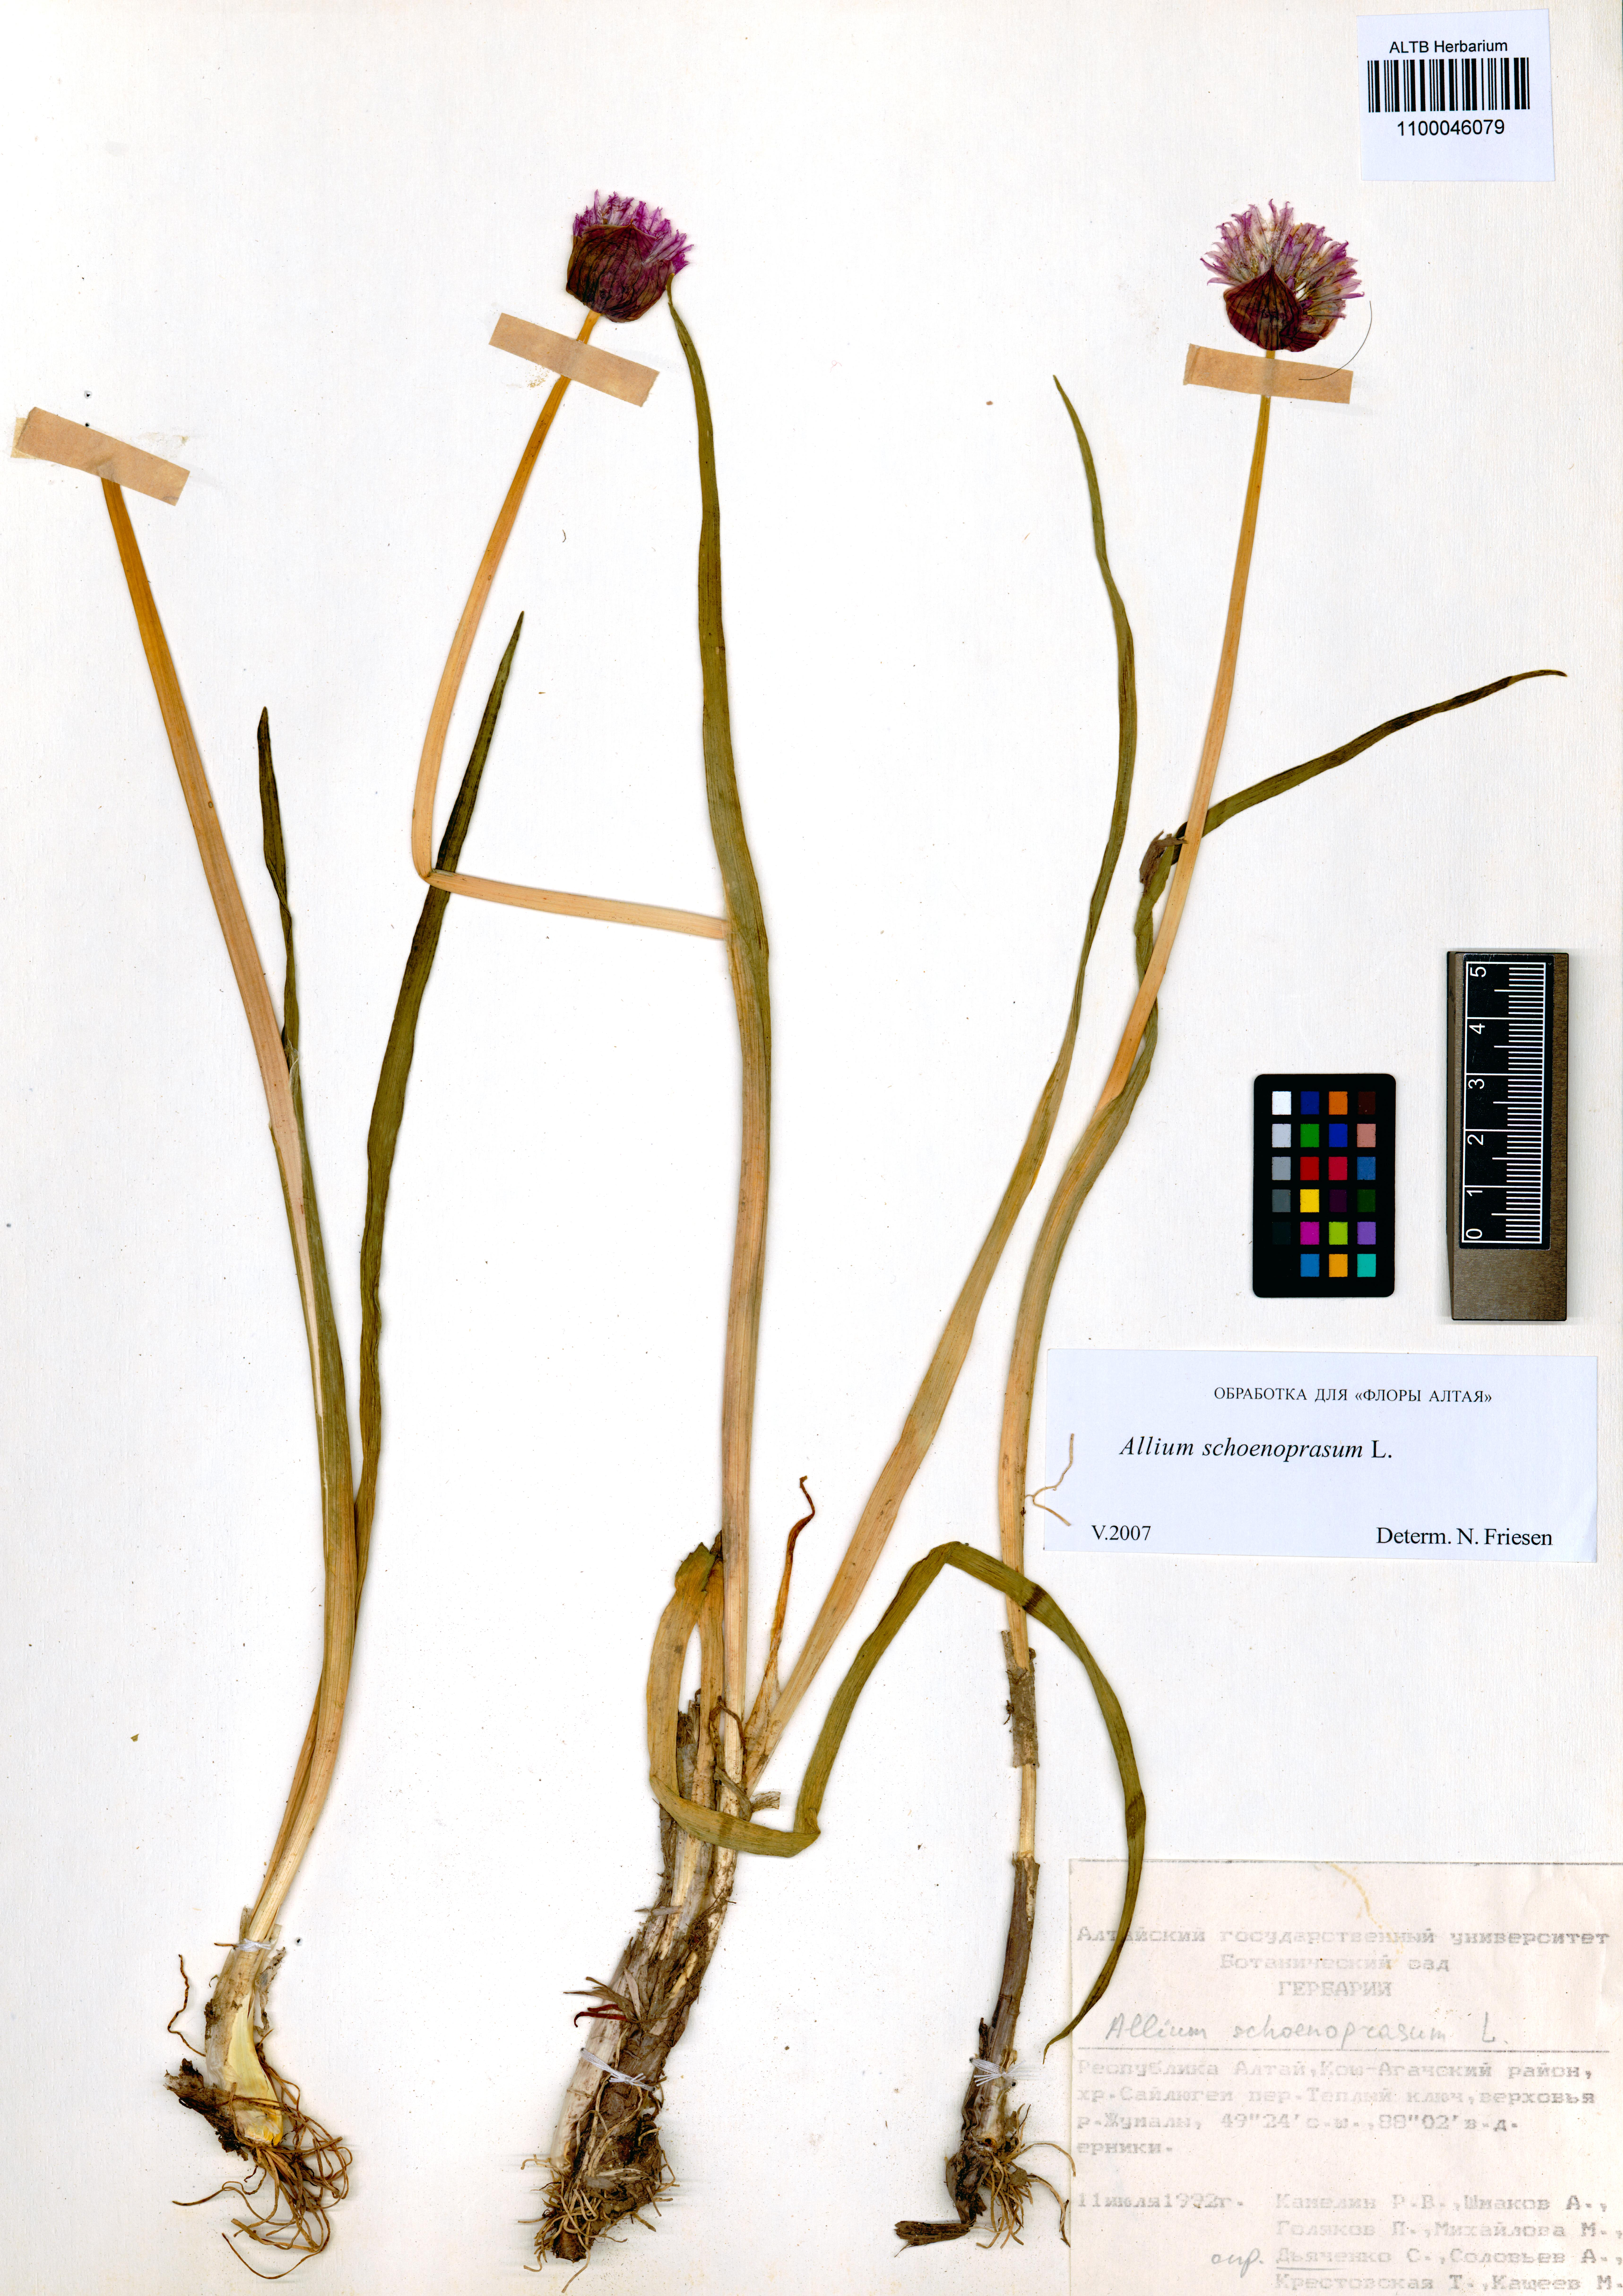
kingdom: Plantae
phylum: Tracheophyta
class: Liliopsida
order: Asparagales
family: Amaryllidaceae
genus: Allium
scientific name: Allium schoenoprasum
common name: Chives
